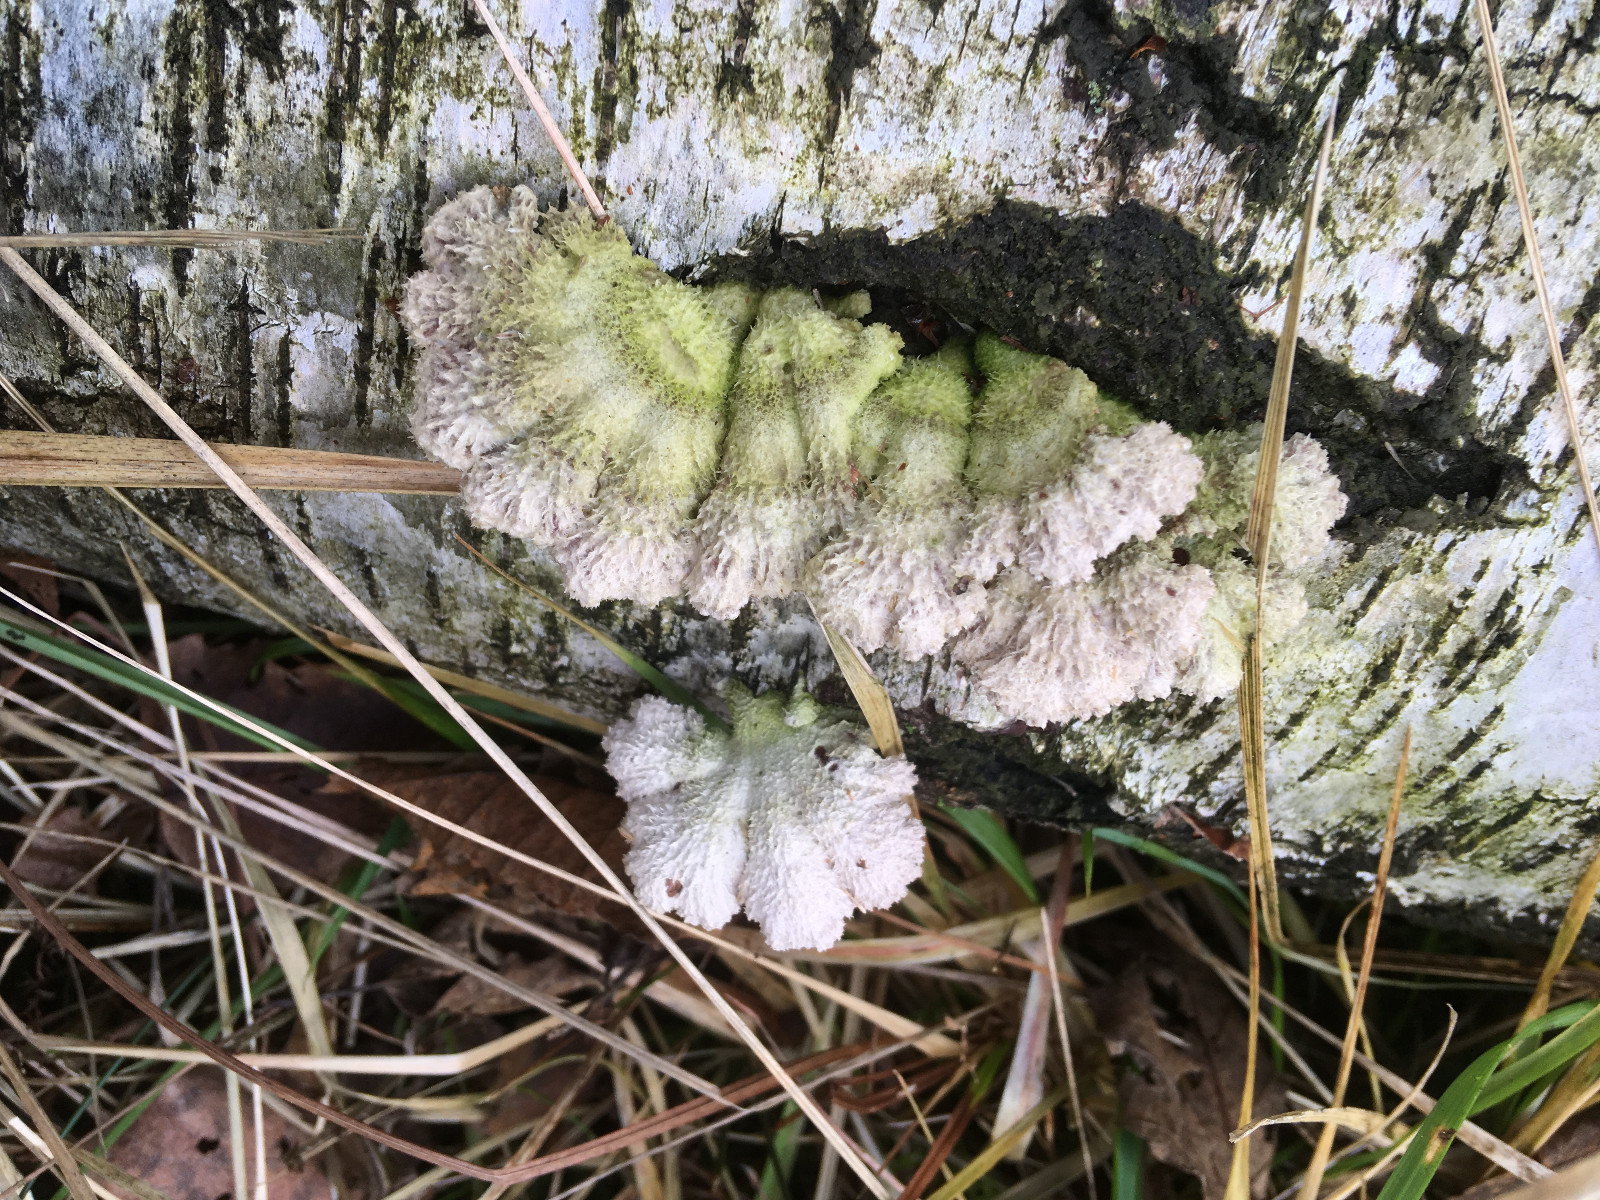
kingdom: Fungi
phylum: Basidiomycota
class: Agaricomycetes
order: Agaricales
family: Schizophyllaceae
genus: Schizophyllum
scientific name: Schizophyllum commune
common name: kløvblad
